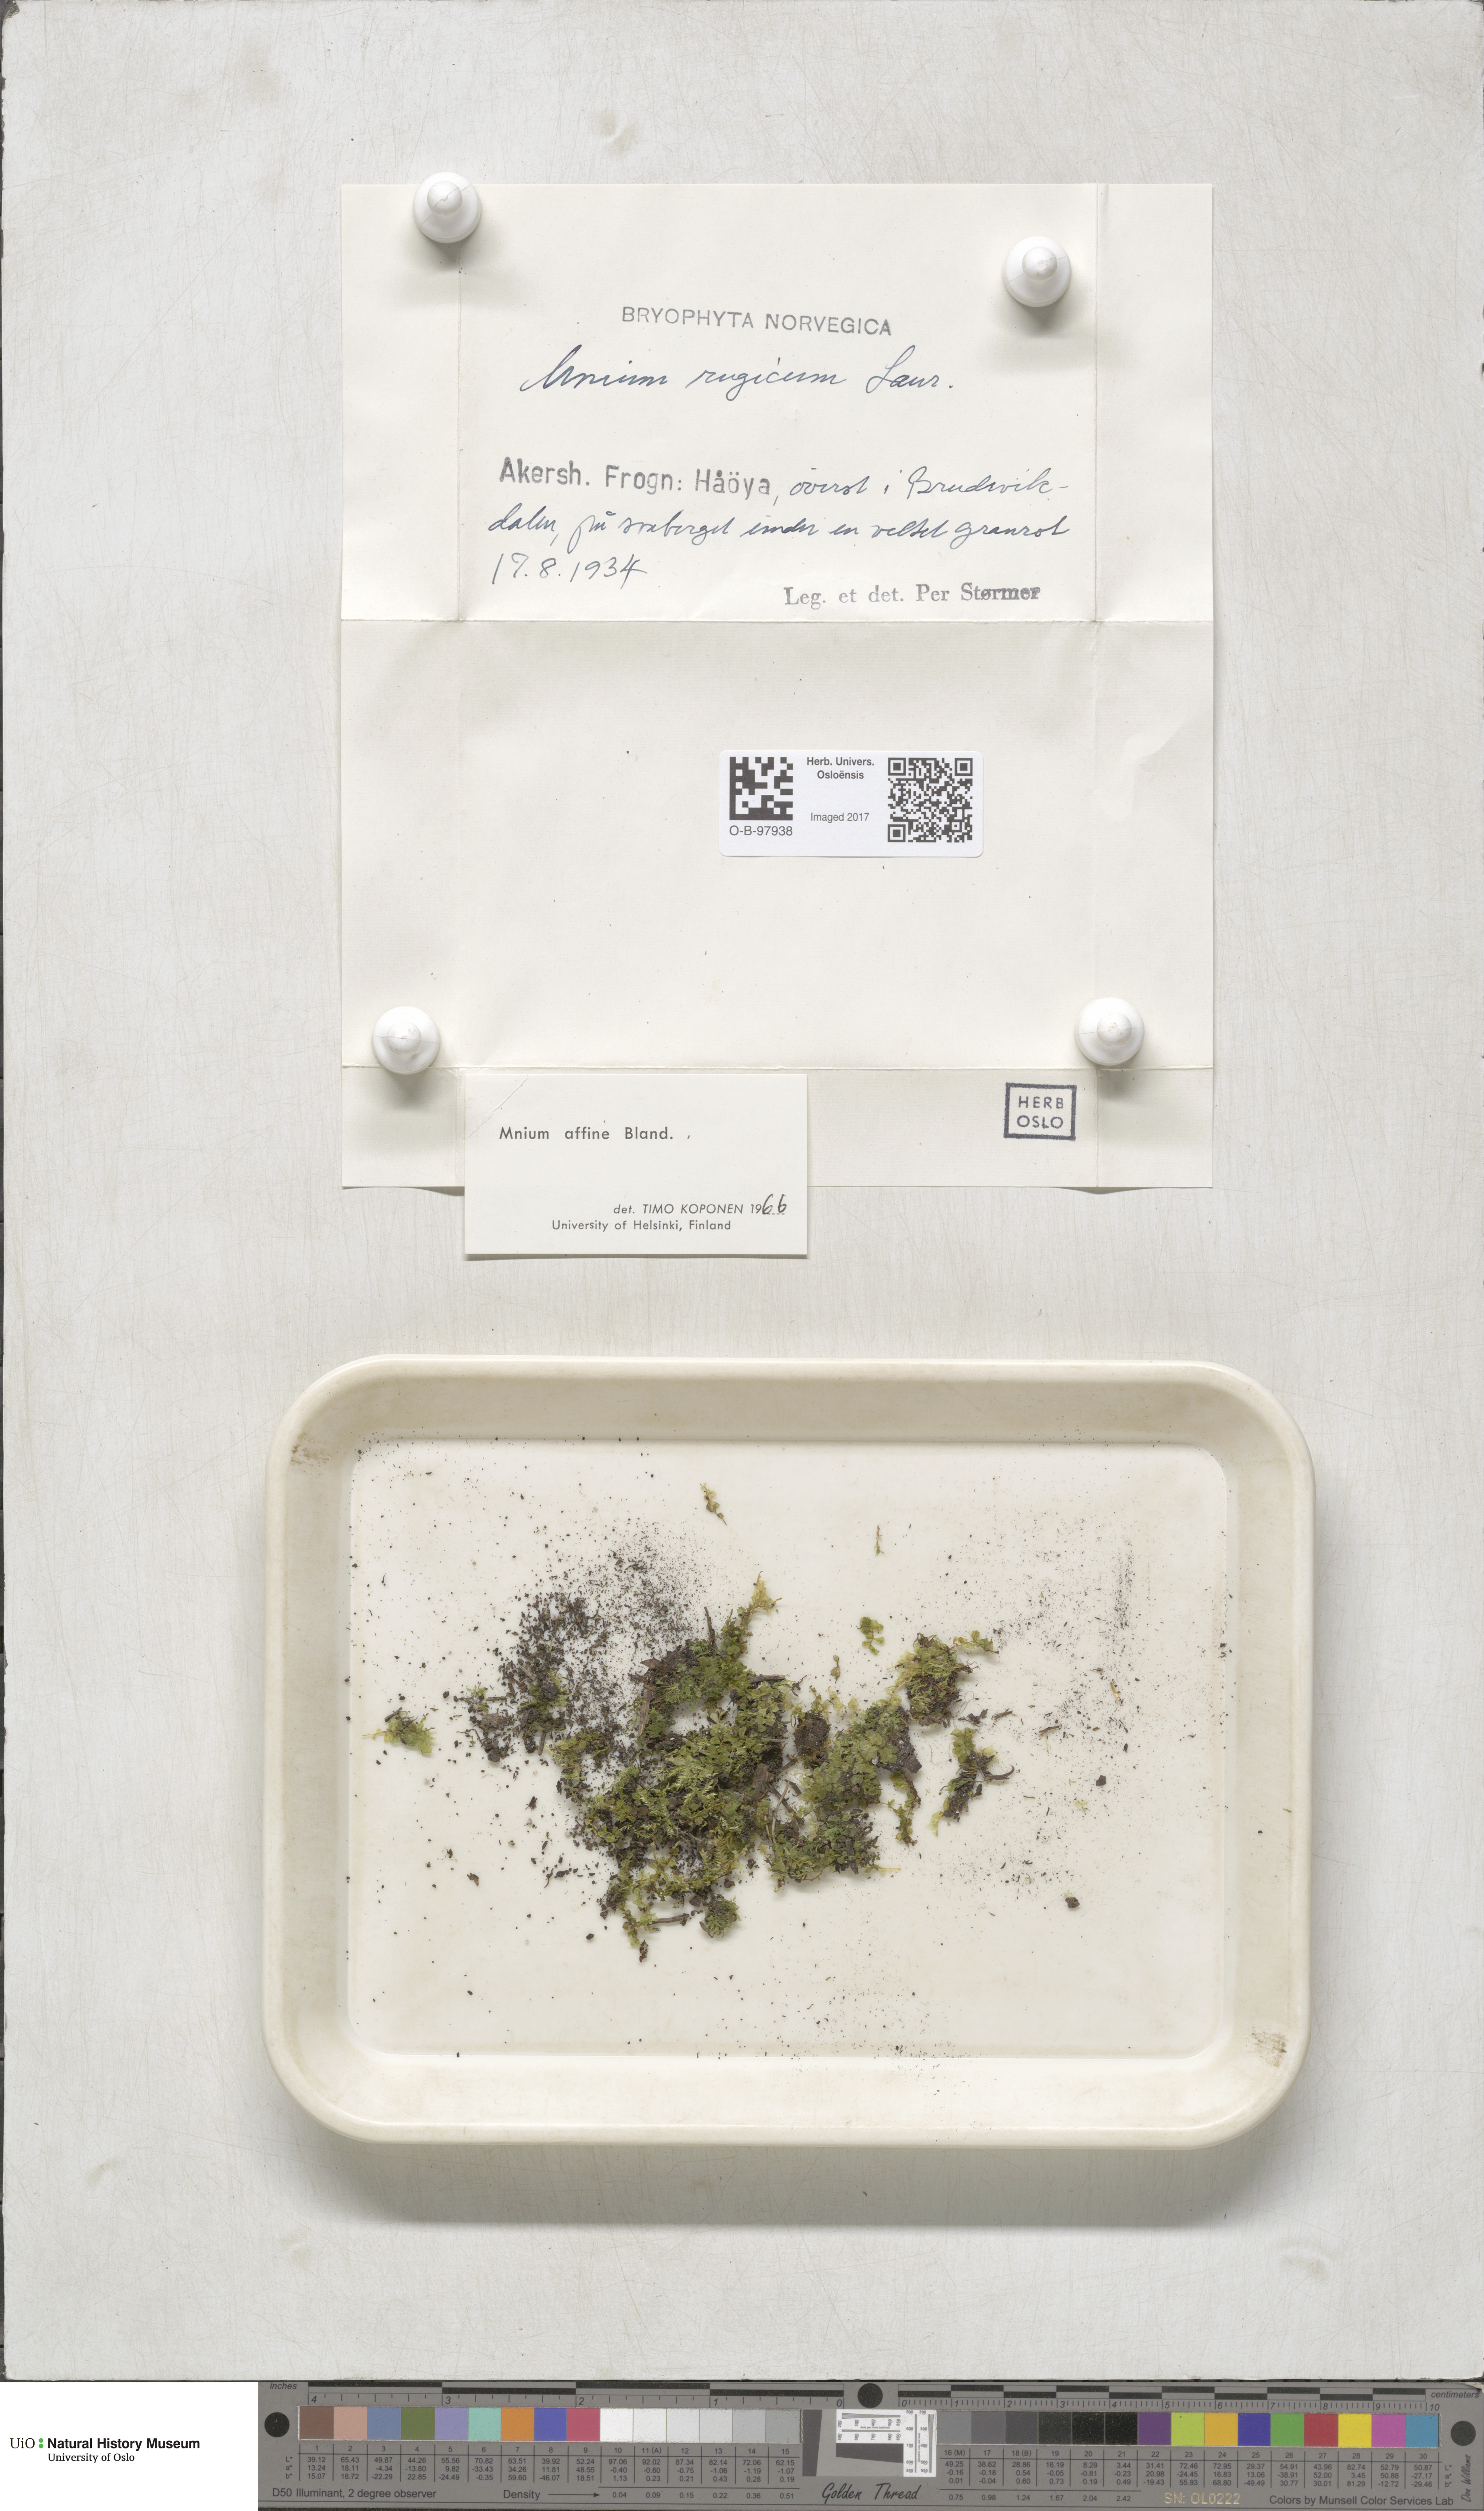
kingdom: Plantae
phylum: Bryophyta
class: Bryopsida
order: Bryales
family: Mniaceae
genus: Plagiomnium
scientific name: Plagiomnium affine
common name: Many-fruited thyme-moss
